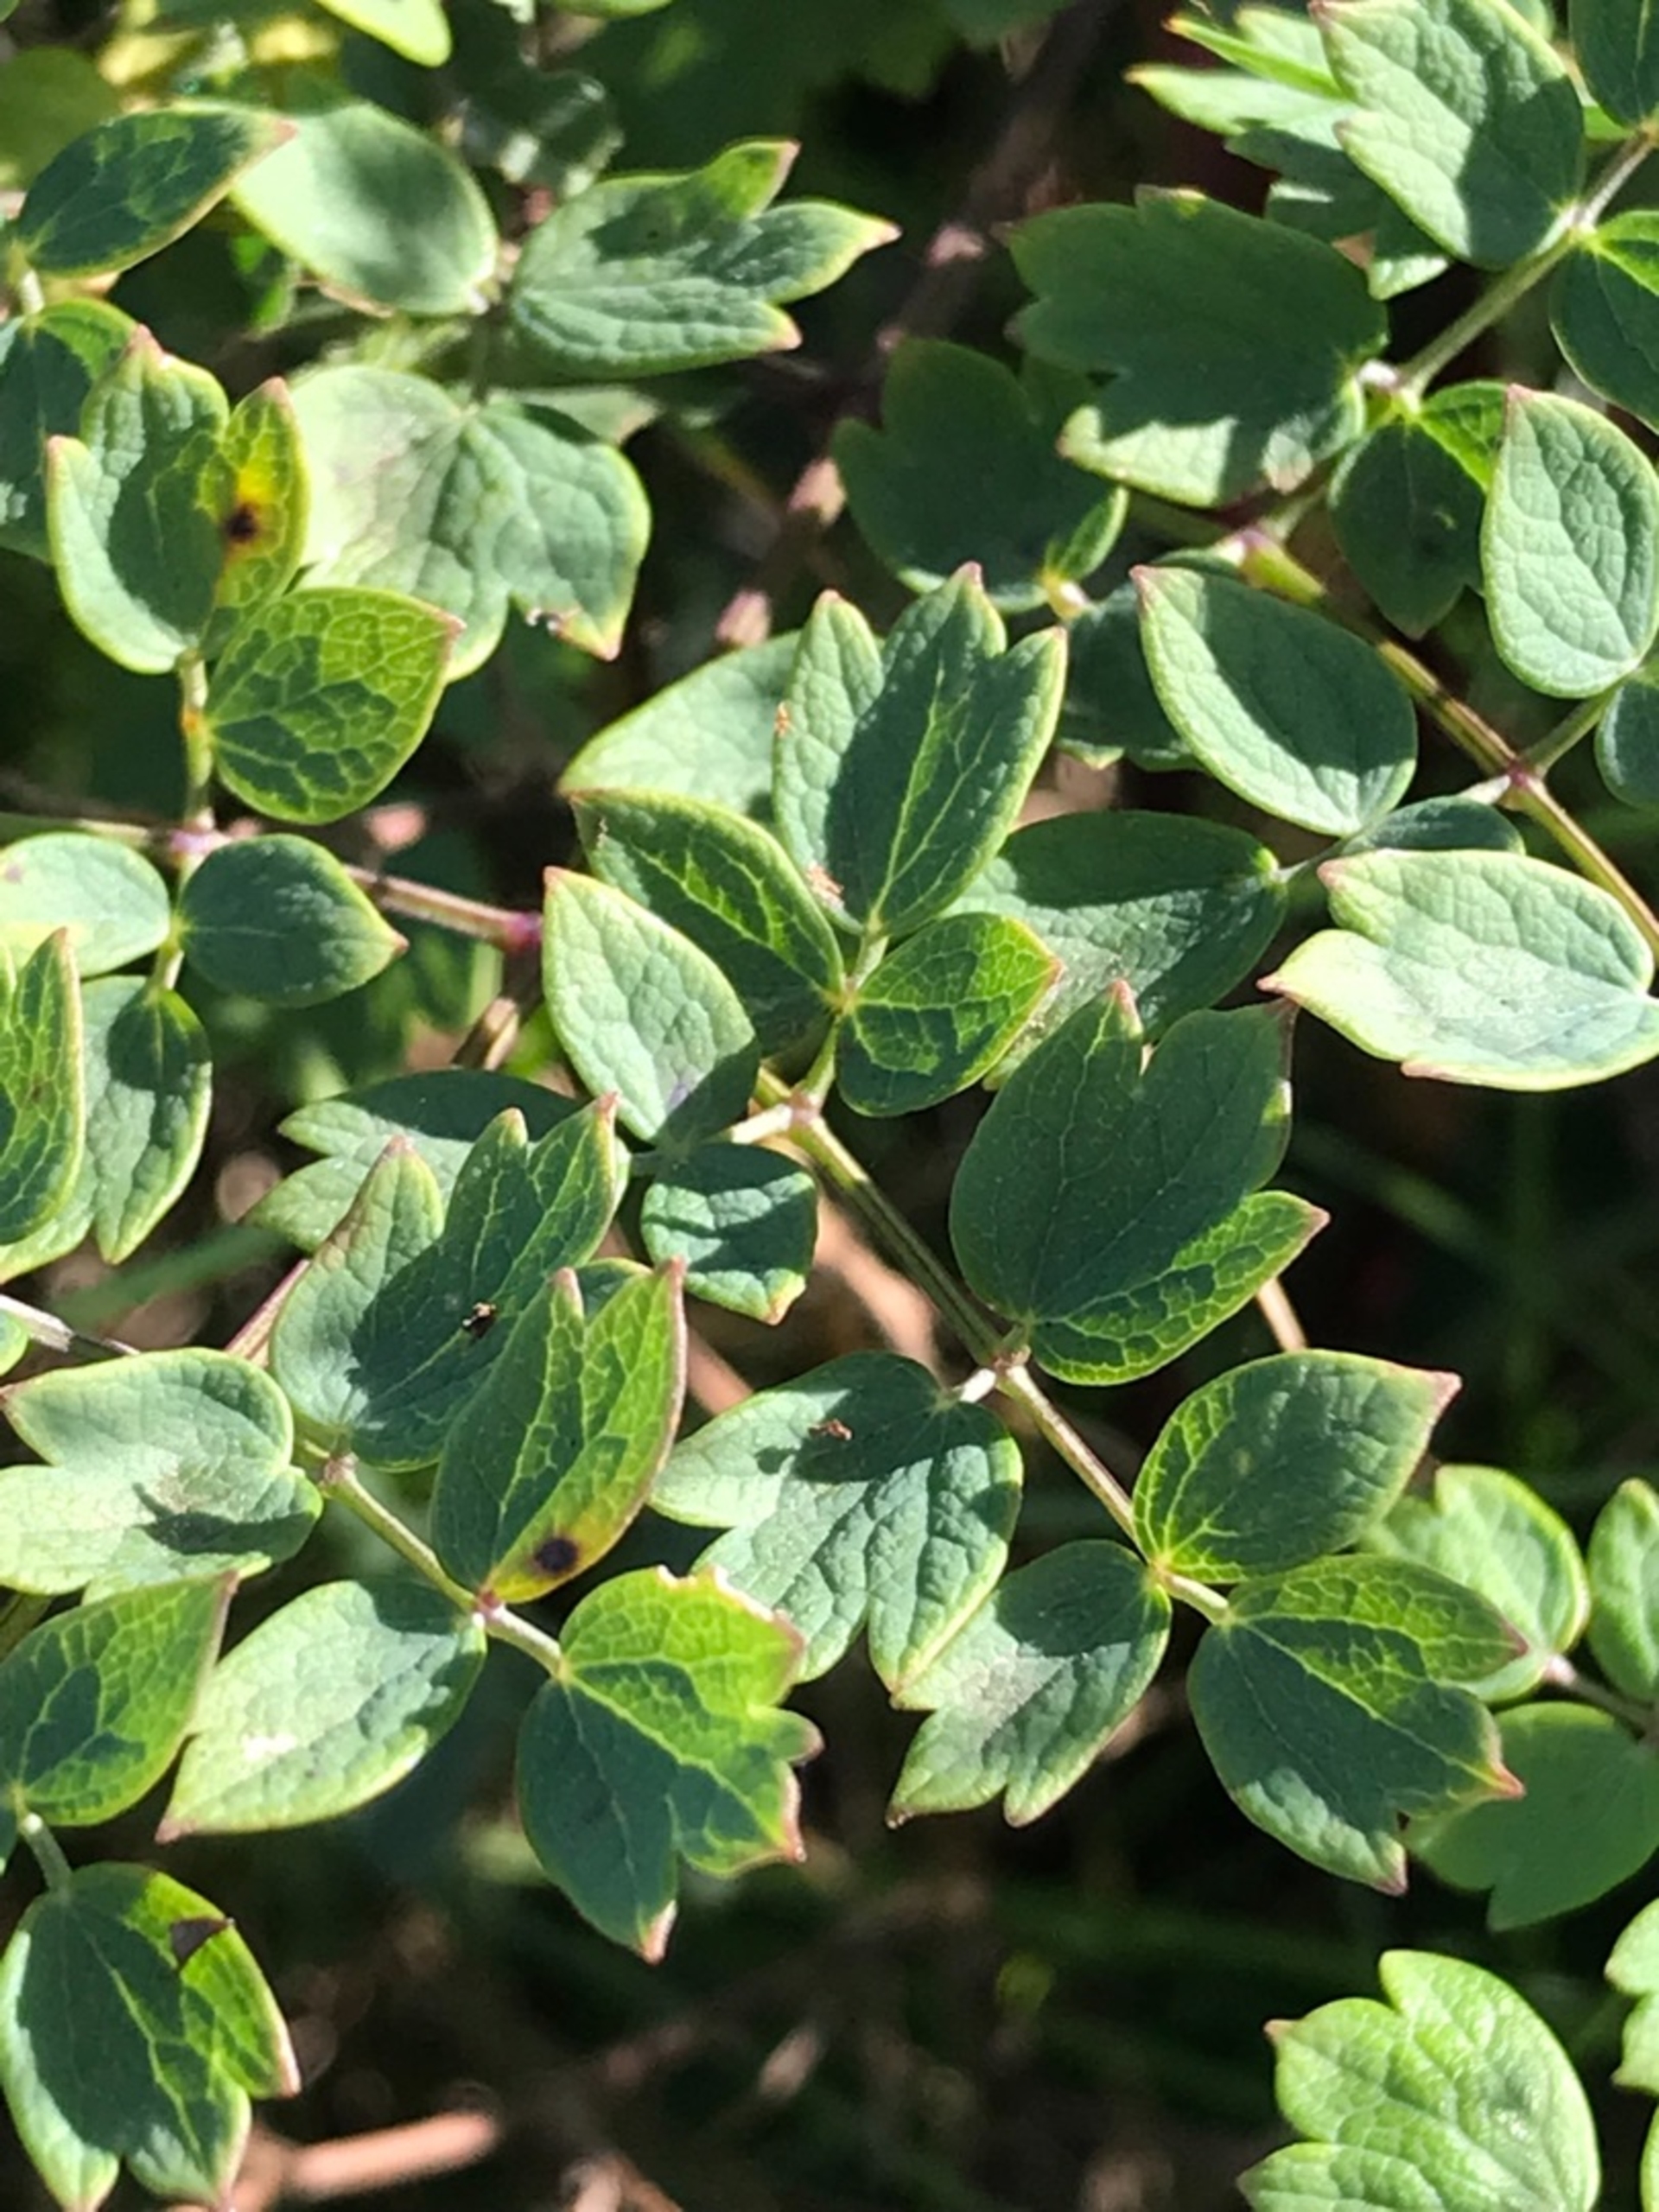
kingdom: Plantae
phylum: Tracheophyta
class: Magnoliopsida
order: Ranunculales
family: Ranunculaceae
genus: Thalictrum
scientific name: Thalictrum minus
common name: Liden frøstjerne
